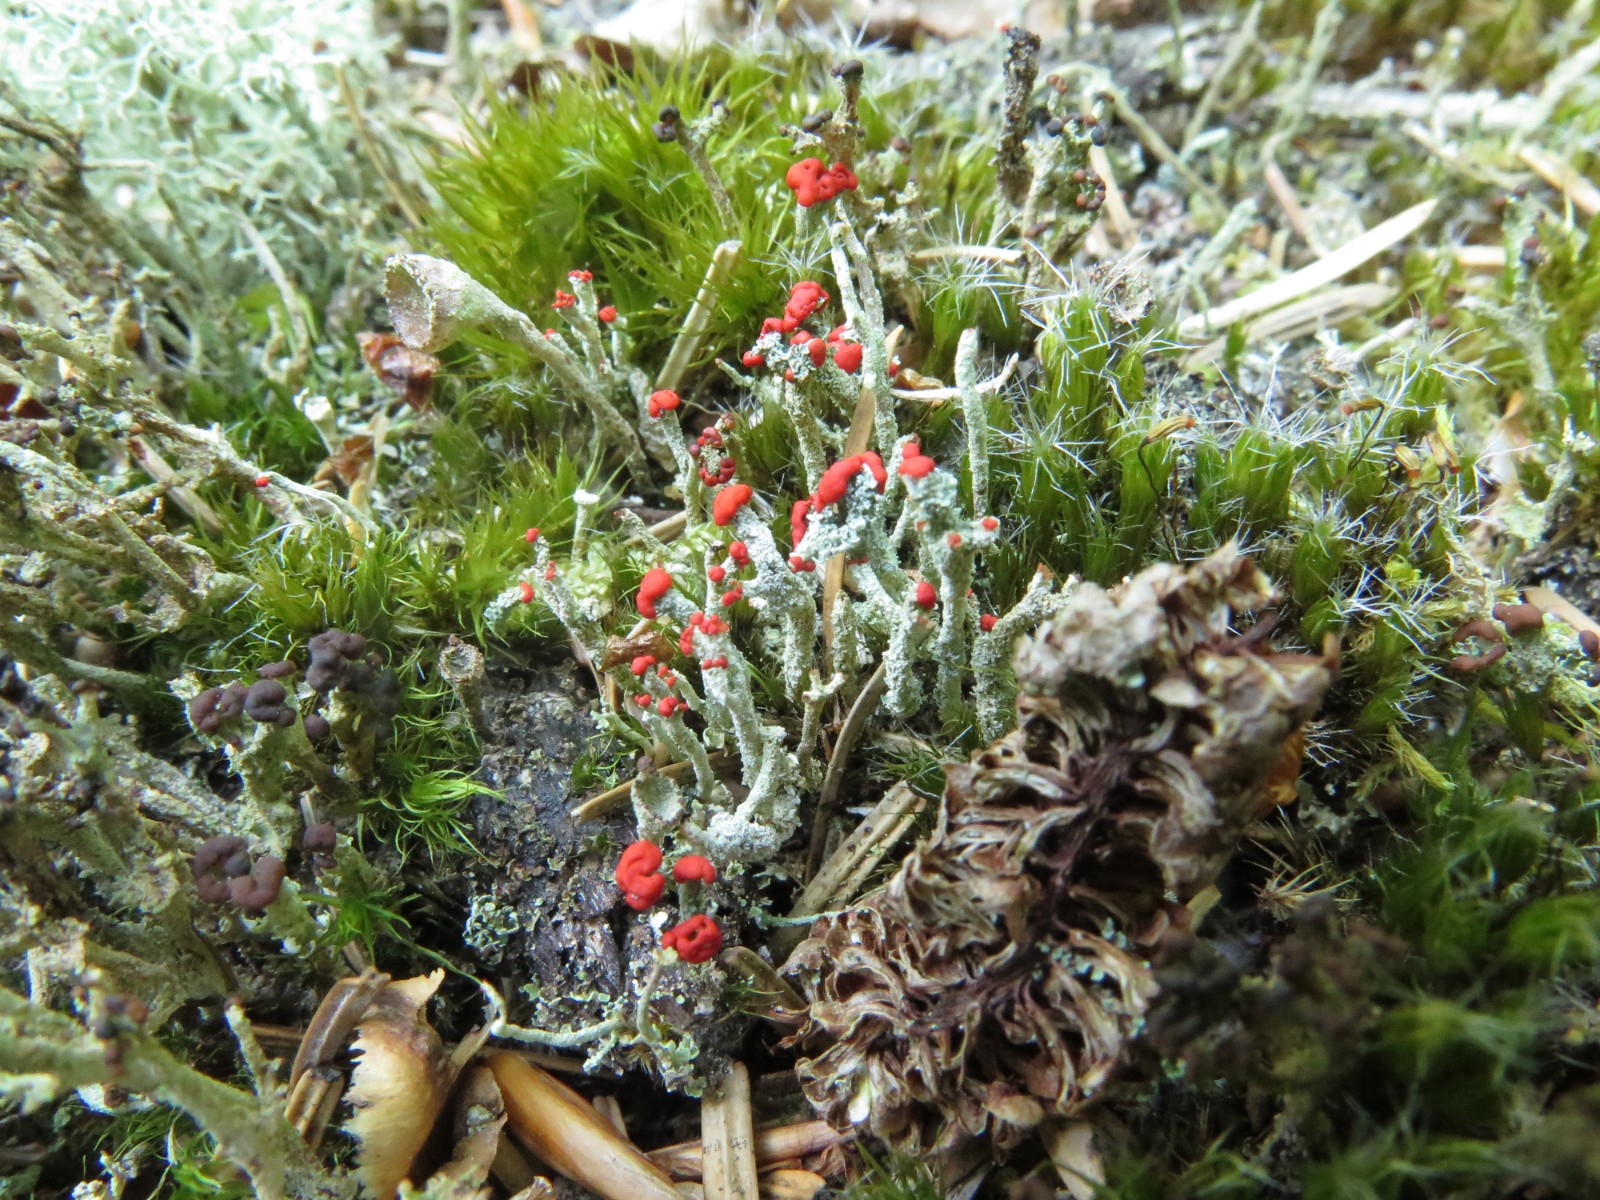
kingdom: Fungi
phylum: Ascomycota
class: Lecanoromycetes
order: Lecanorales
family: Cladoniaceae
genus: Cladonia
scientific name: Cladonia floerkeana
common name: lakrød bægerlav
